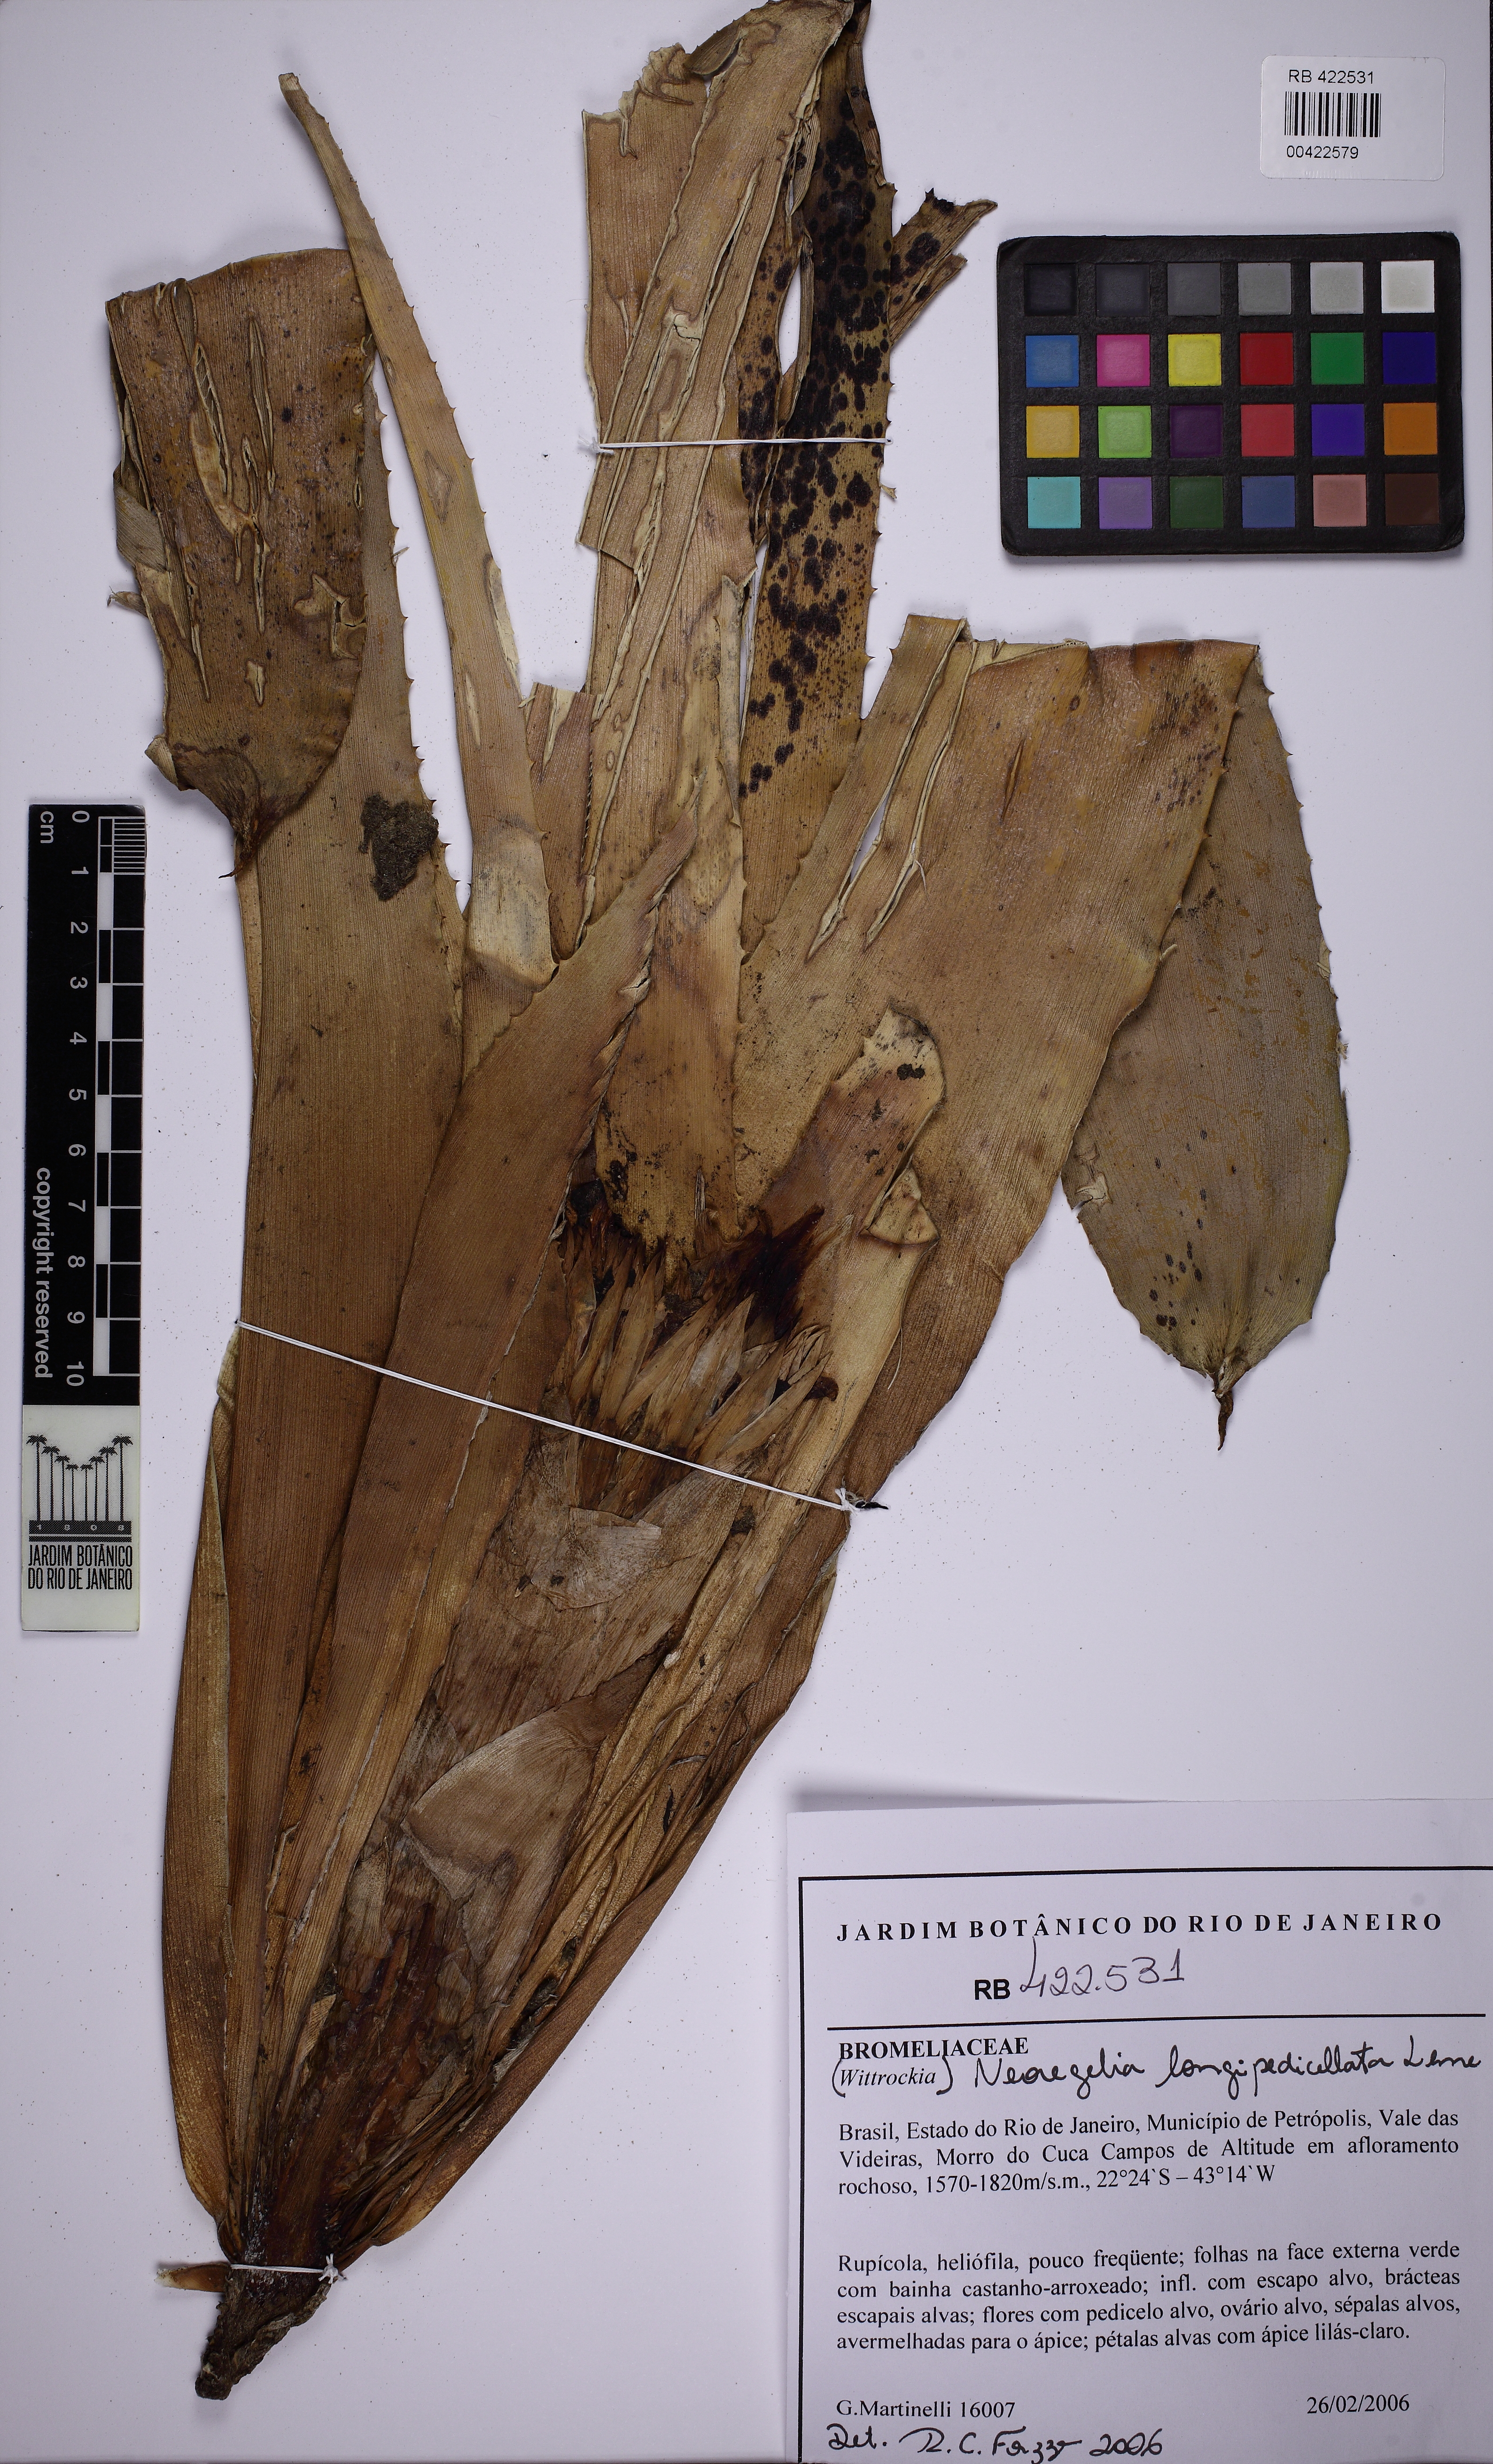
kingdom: Plantae
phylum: Tracheophyta
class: Liliopsida
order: Poales
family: Bromeliaceae
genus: Neoregelia
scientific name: Neoregelia longipedicellata
